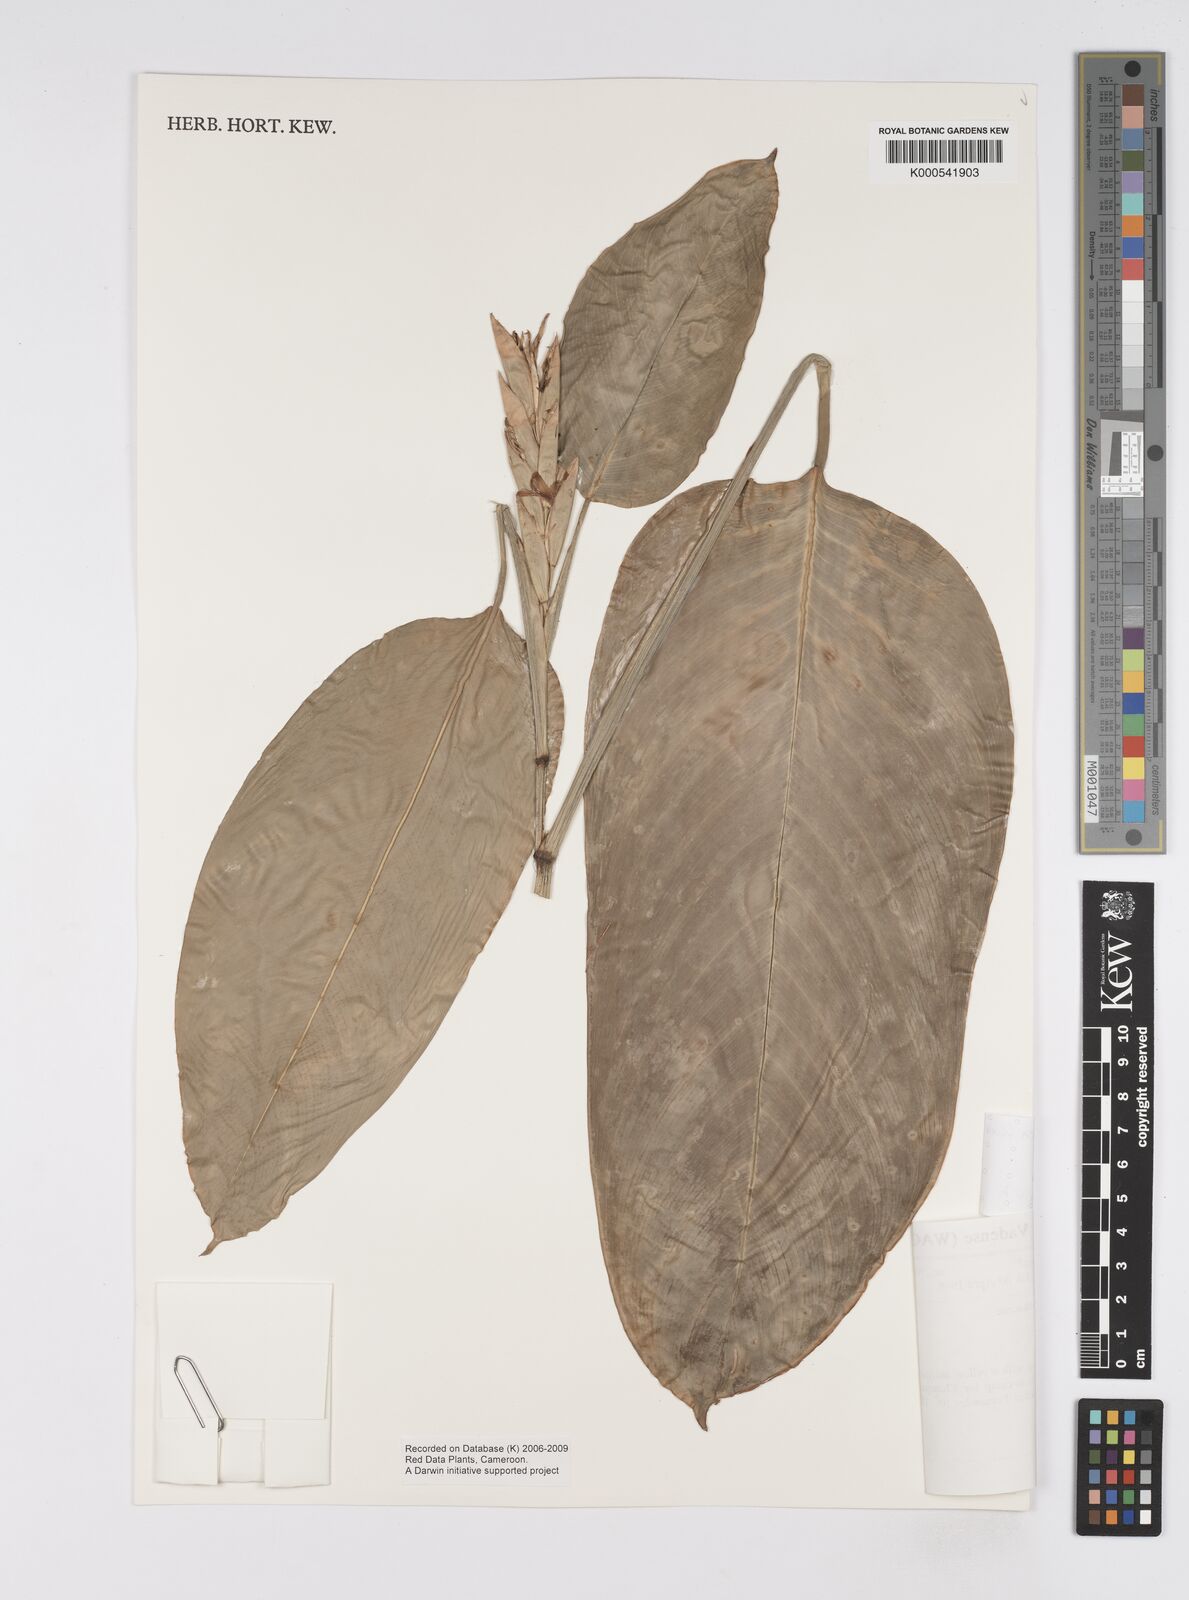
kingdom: Plantae
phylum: Tracheophyta
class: Liliopsida
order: Zingiberales
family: Marantaceae
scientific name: Marantaceae
